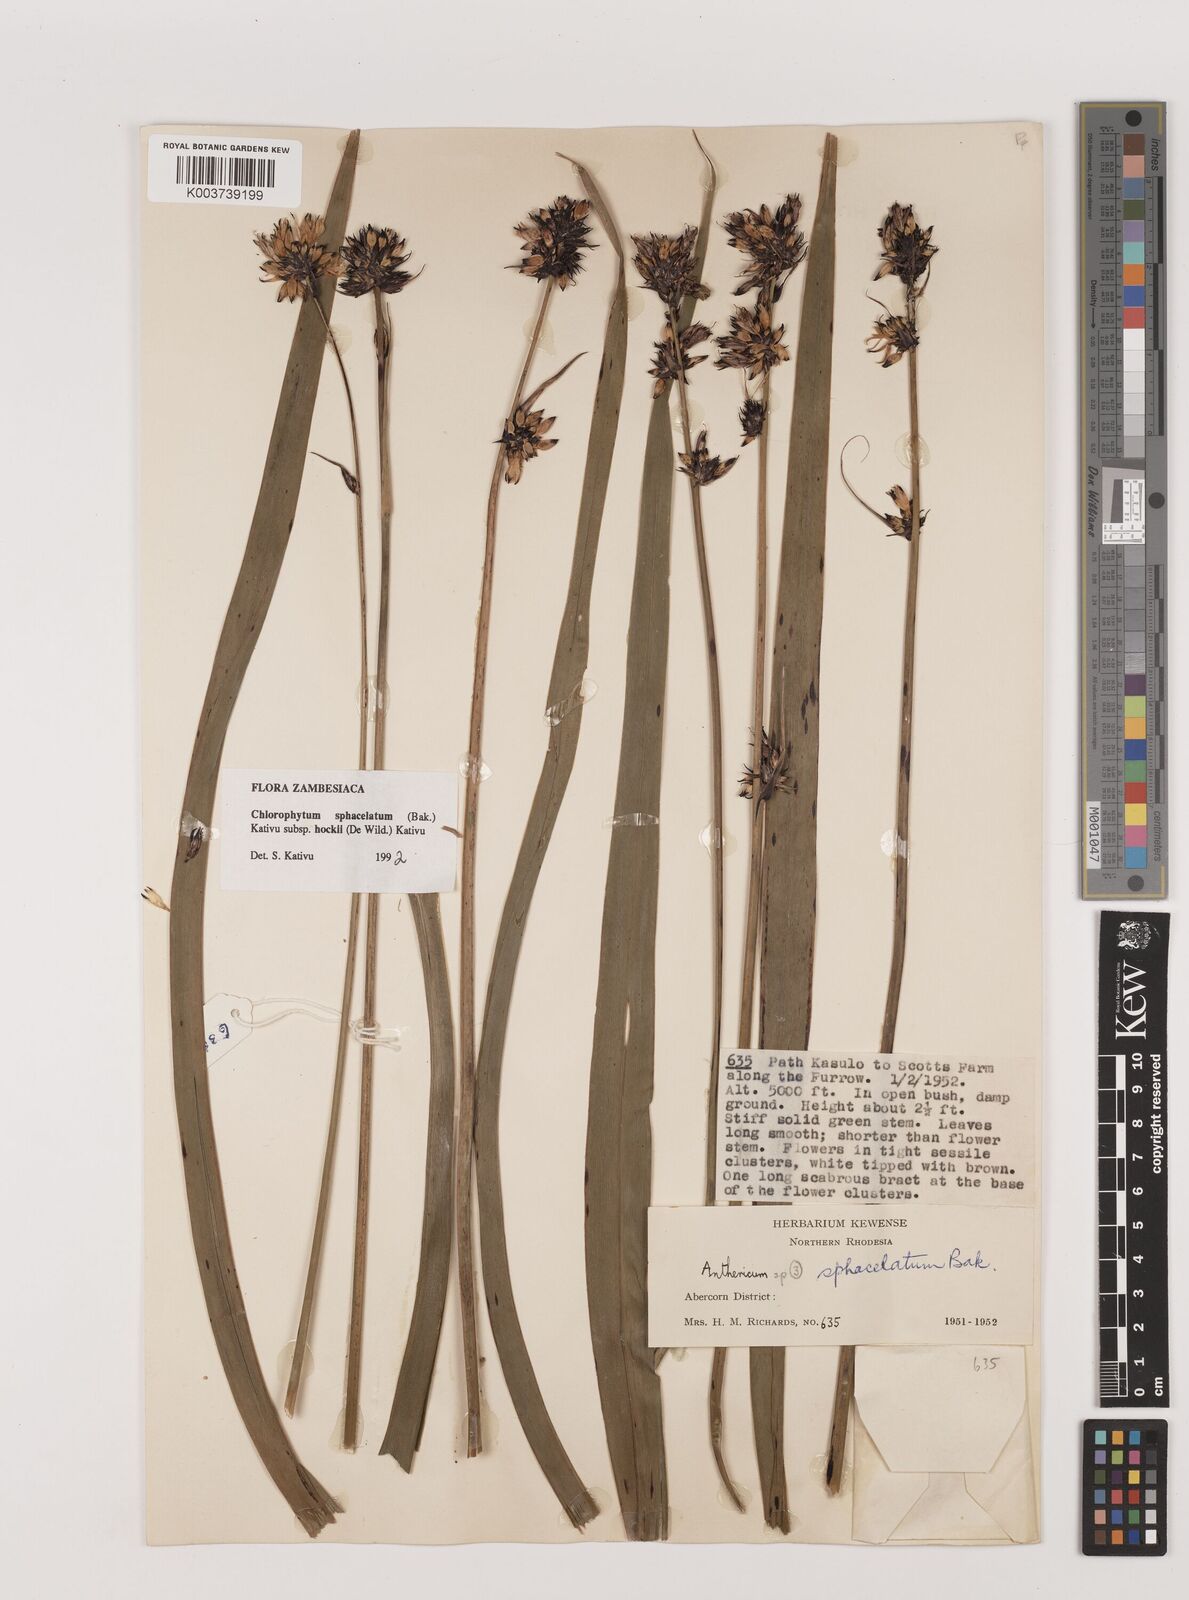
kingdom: Plantae
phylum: Tracheophyta
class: Liliopsida
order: Asparagales
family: Asparagaceae
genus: Chlorophytum
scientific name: Chlorophytum sphacelatum
